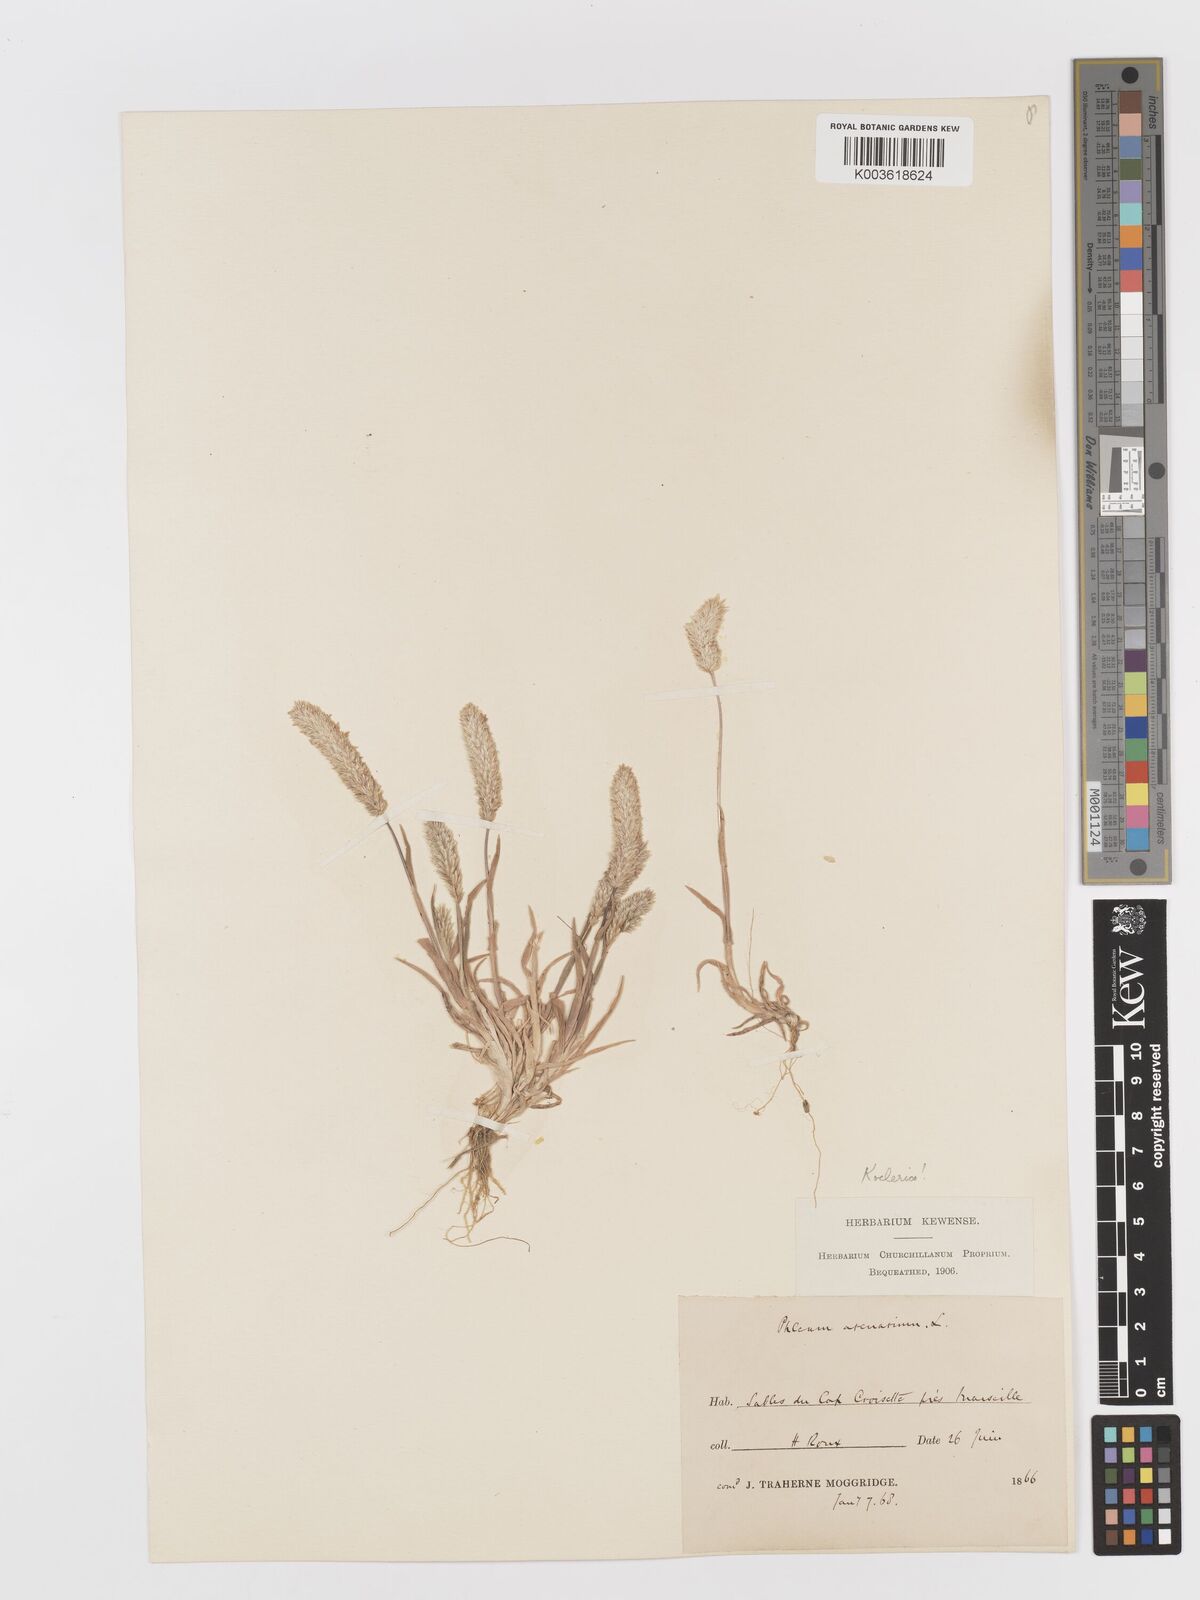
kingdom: Plantae
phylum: Tracheophyta
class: Liliopsida
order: Poales
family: Poaceae
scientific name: Poaceae
